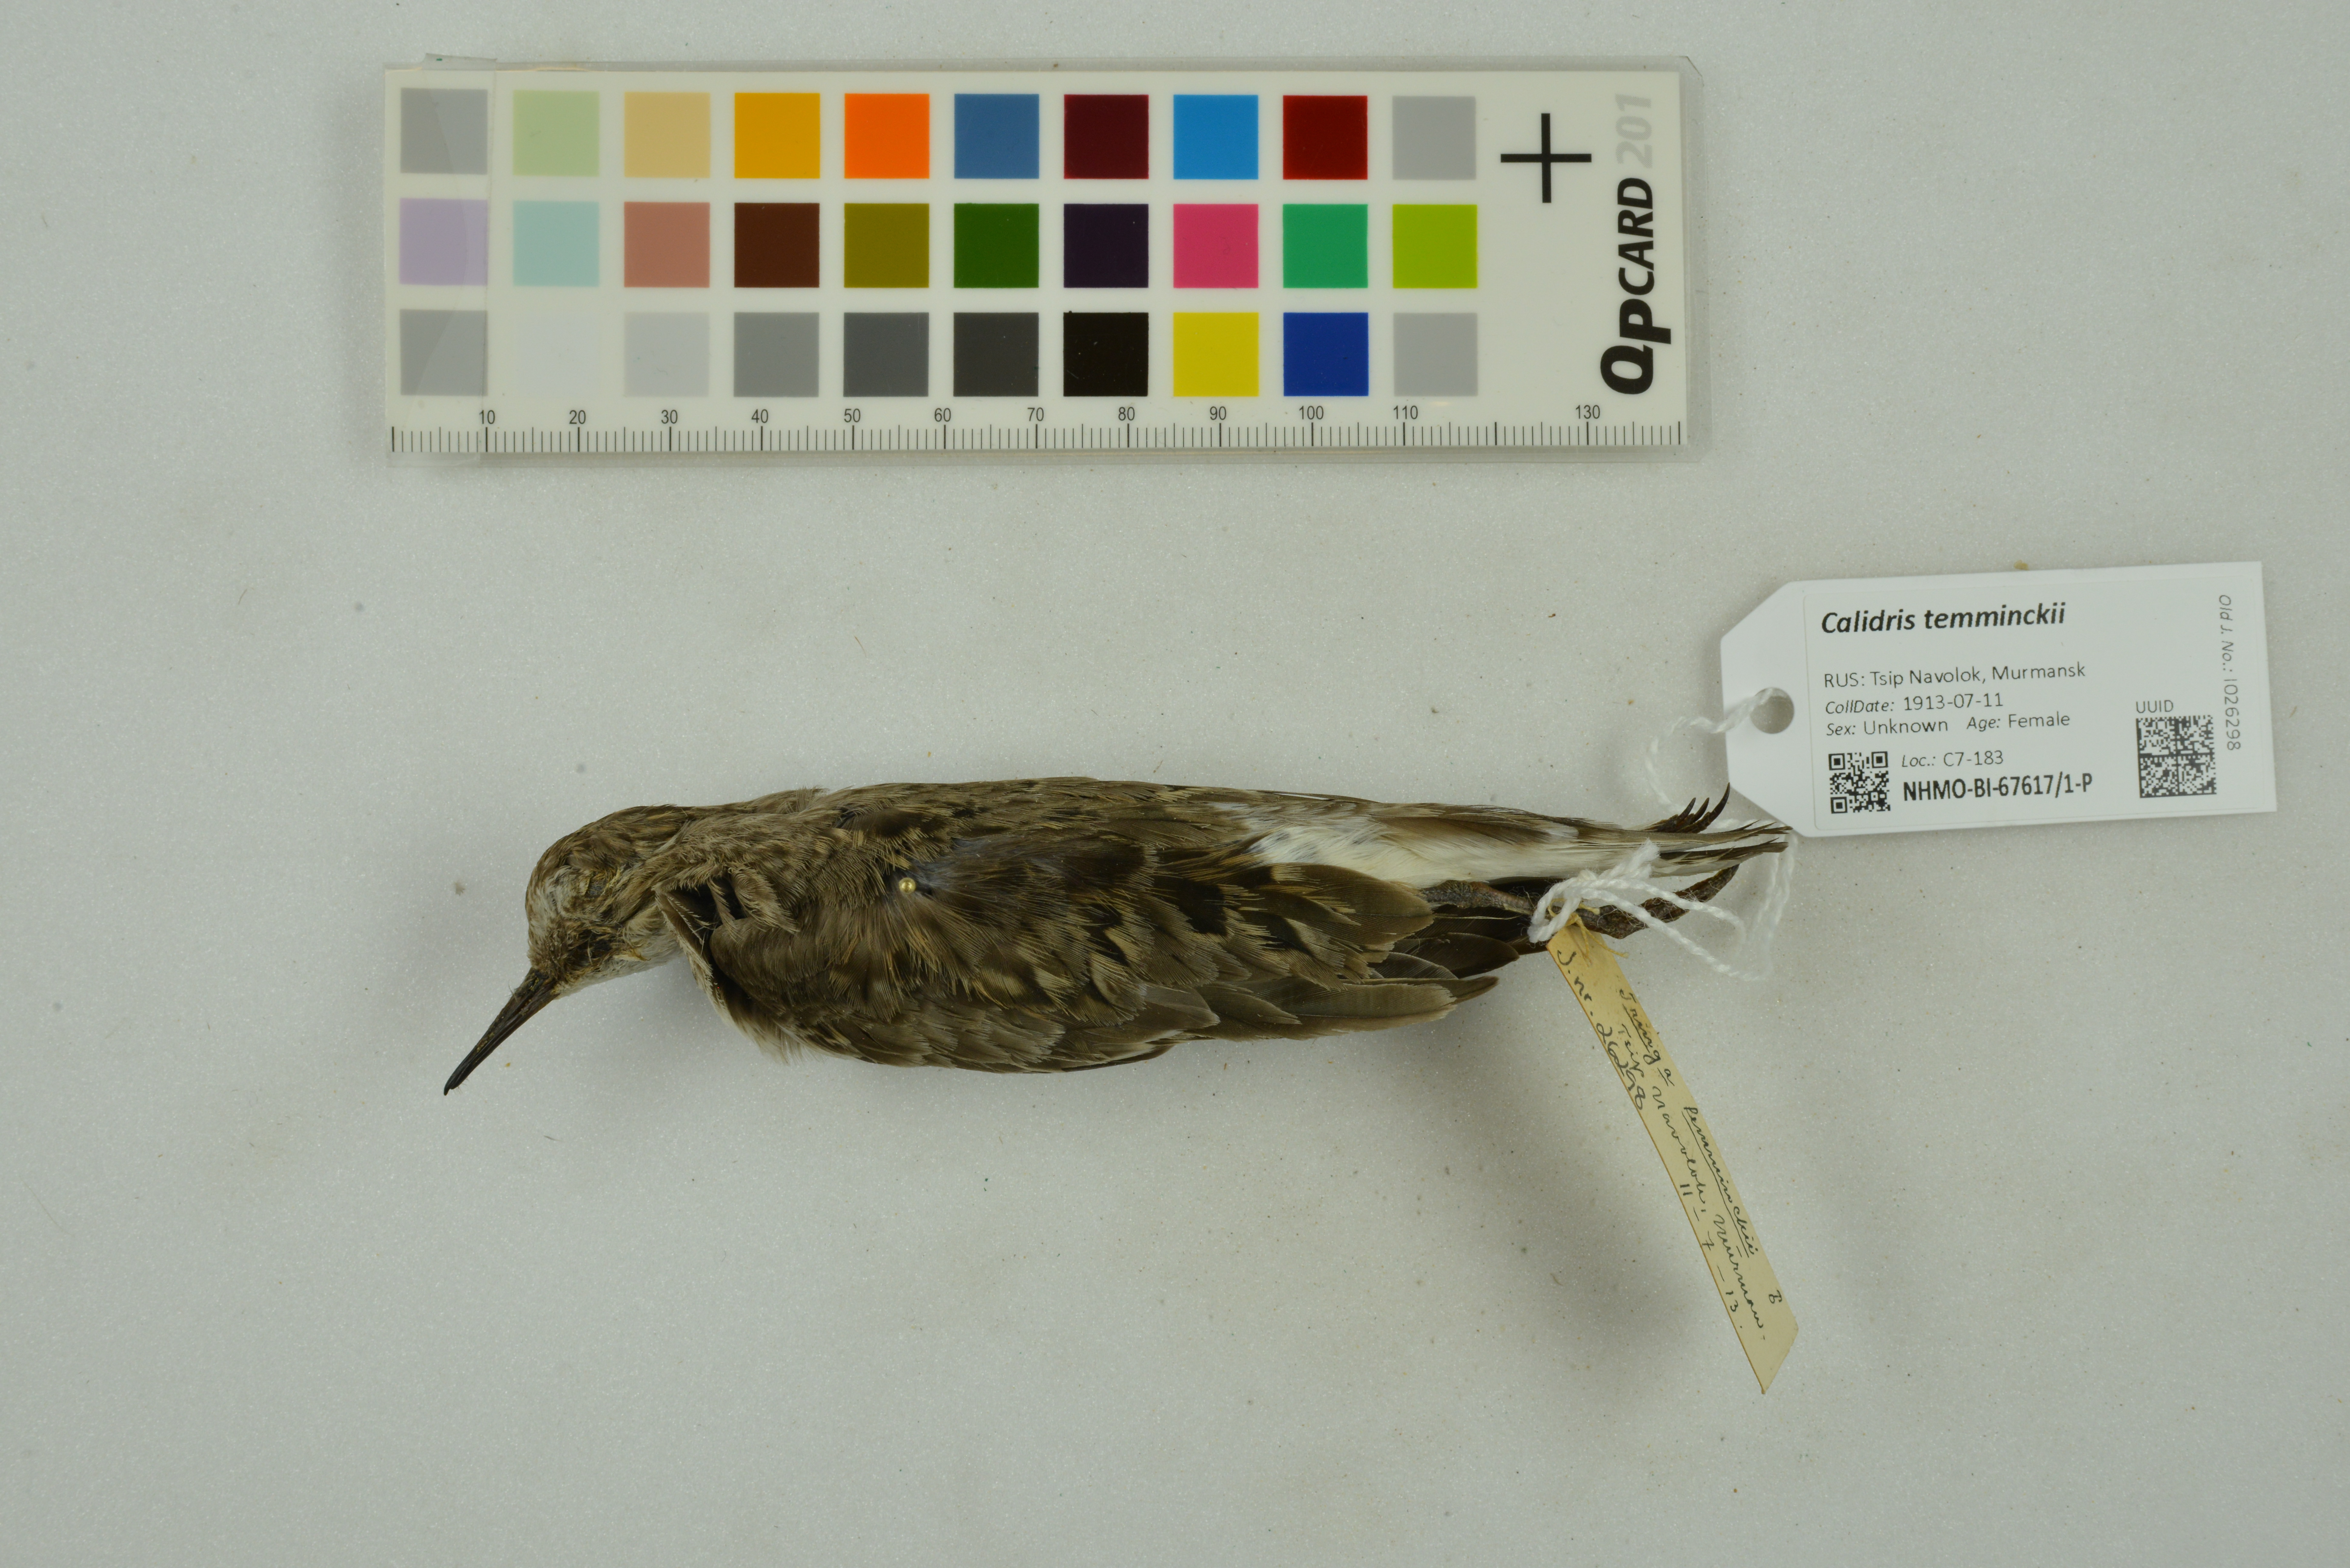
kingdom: Animalia
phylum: Chordata
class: Aves
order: Charadriiformes
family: Scolopacidae
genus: Calidris
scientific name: Calidris temminckii
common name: Temminck's stint
